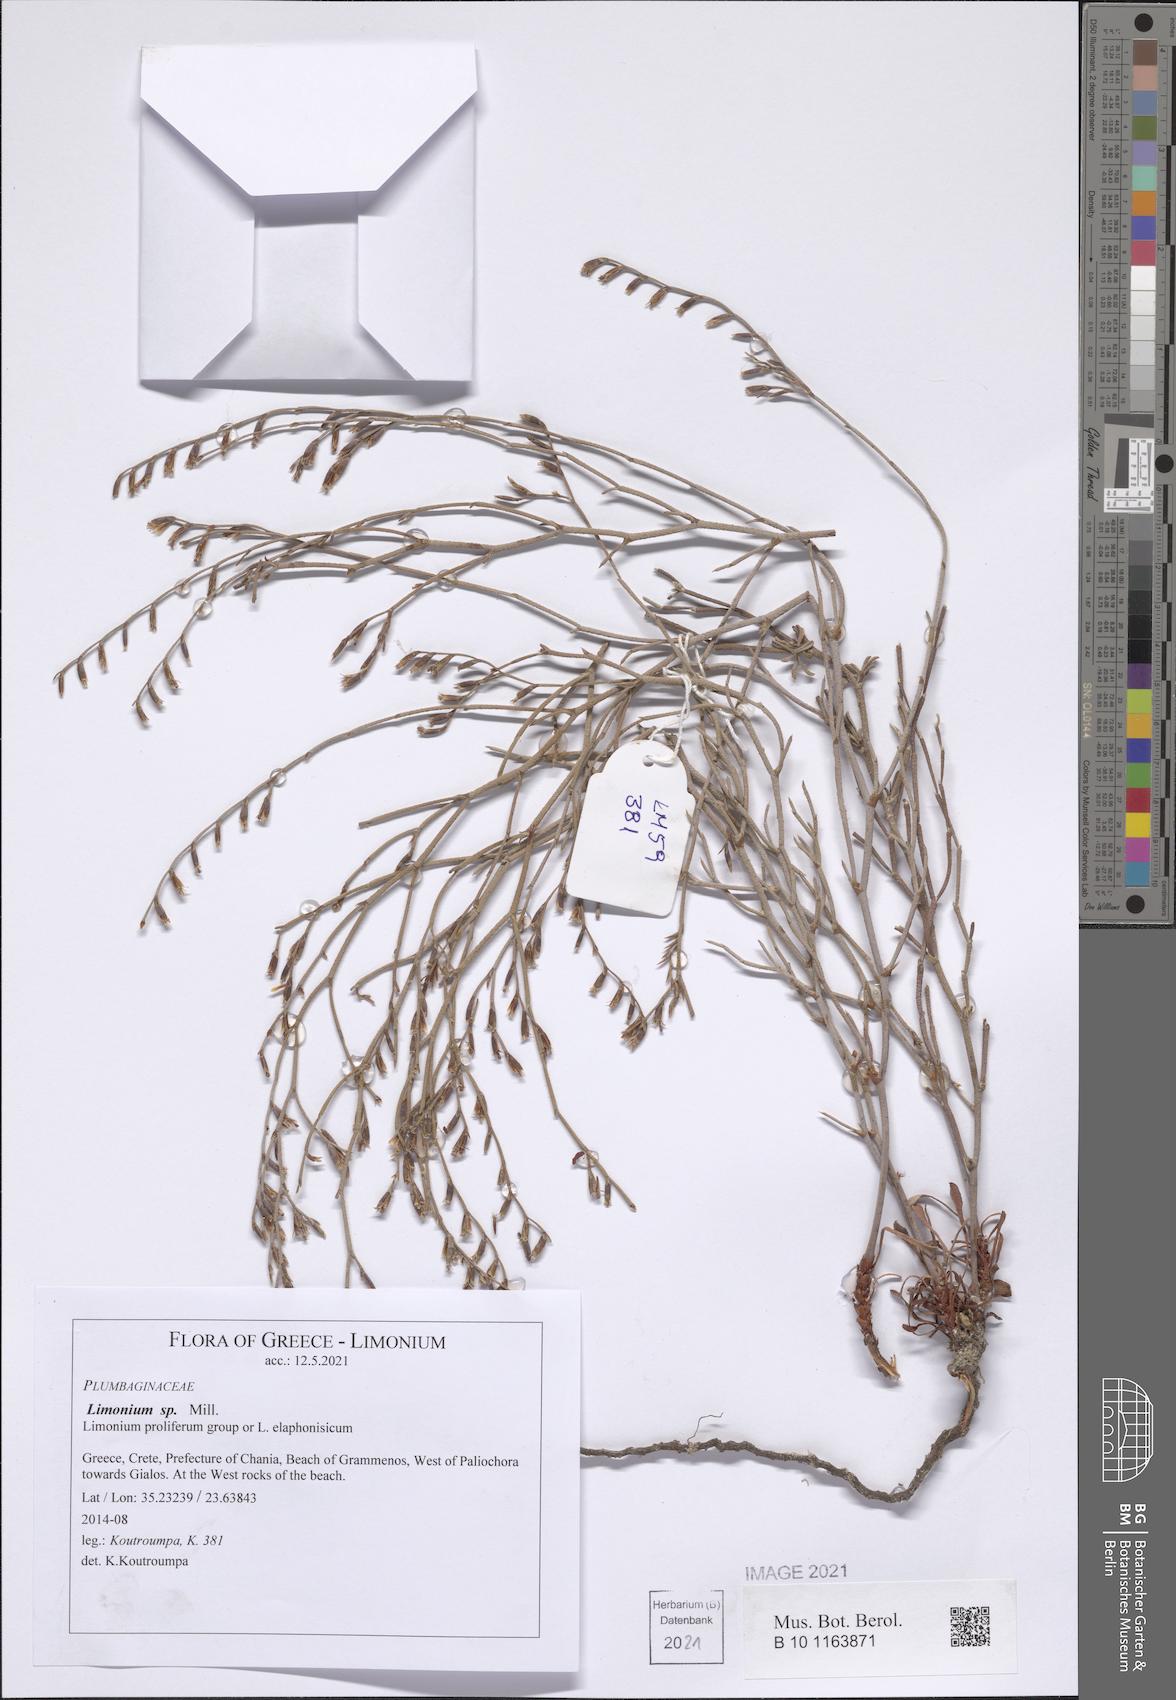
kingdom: Plantae
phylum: Tracheophyta
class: Magnoliopsida
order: Caryophyllales
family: Plumbaginaceae
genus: Limonium
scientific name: Limonium
